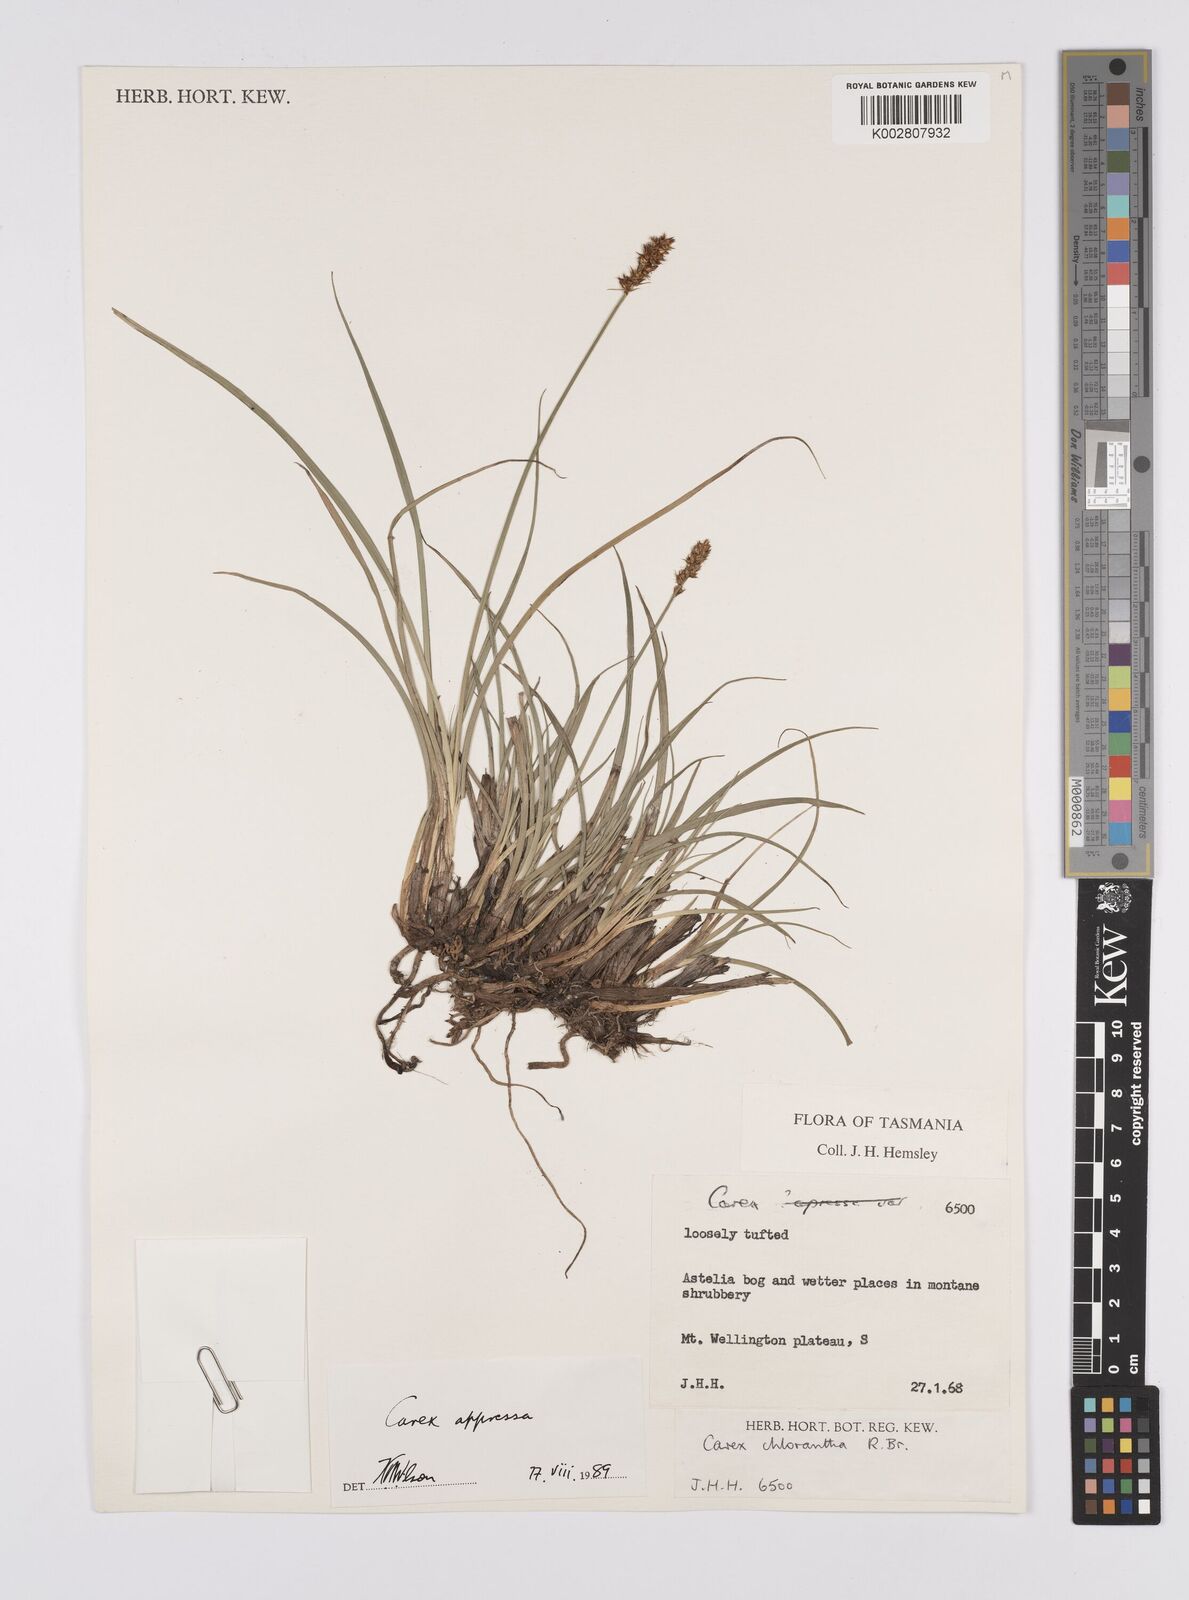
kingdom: Plantae
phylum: Tracheophyta
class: Liliopsida
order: Poales
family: Cyperaceae
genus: Carex
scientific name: Carex appressa
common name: Tussock sedge
